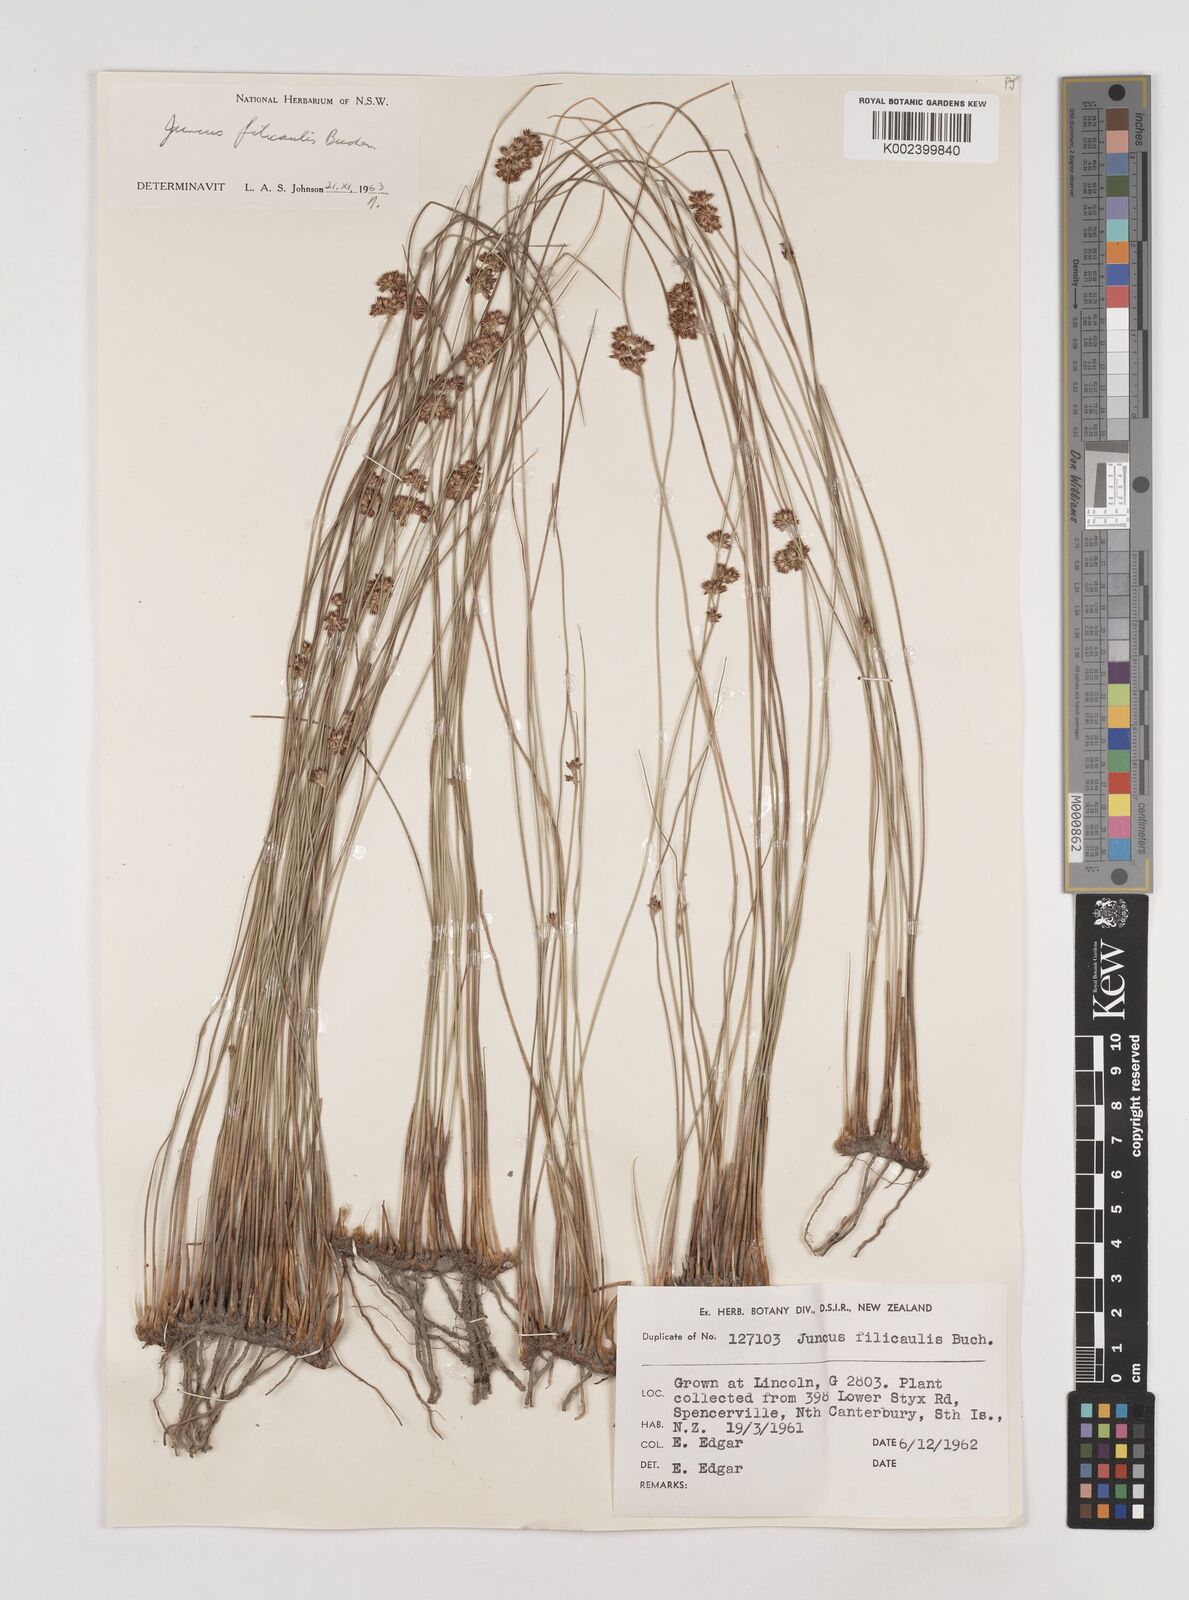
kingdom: Plantae
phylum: Tracheophyta
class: Liliopsida
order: Poales
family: Juncaceae
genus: Juncus
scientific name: Juncus filicaulis
